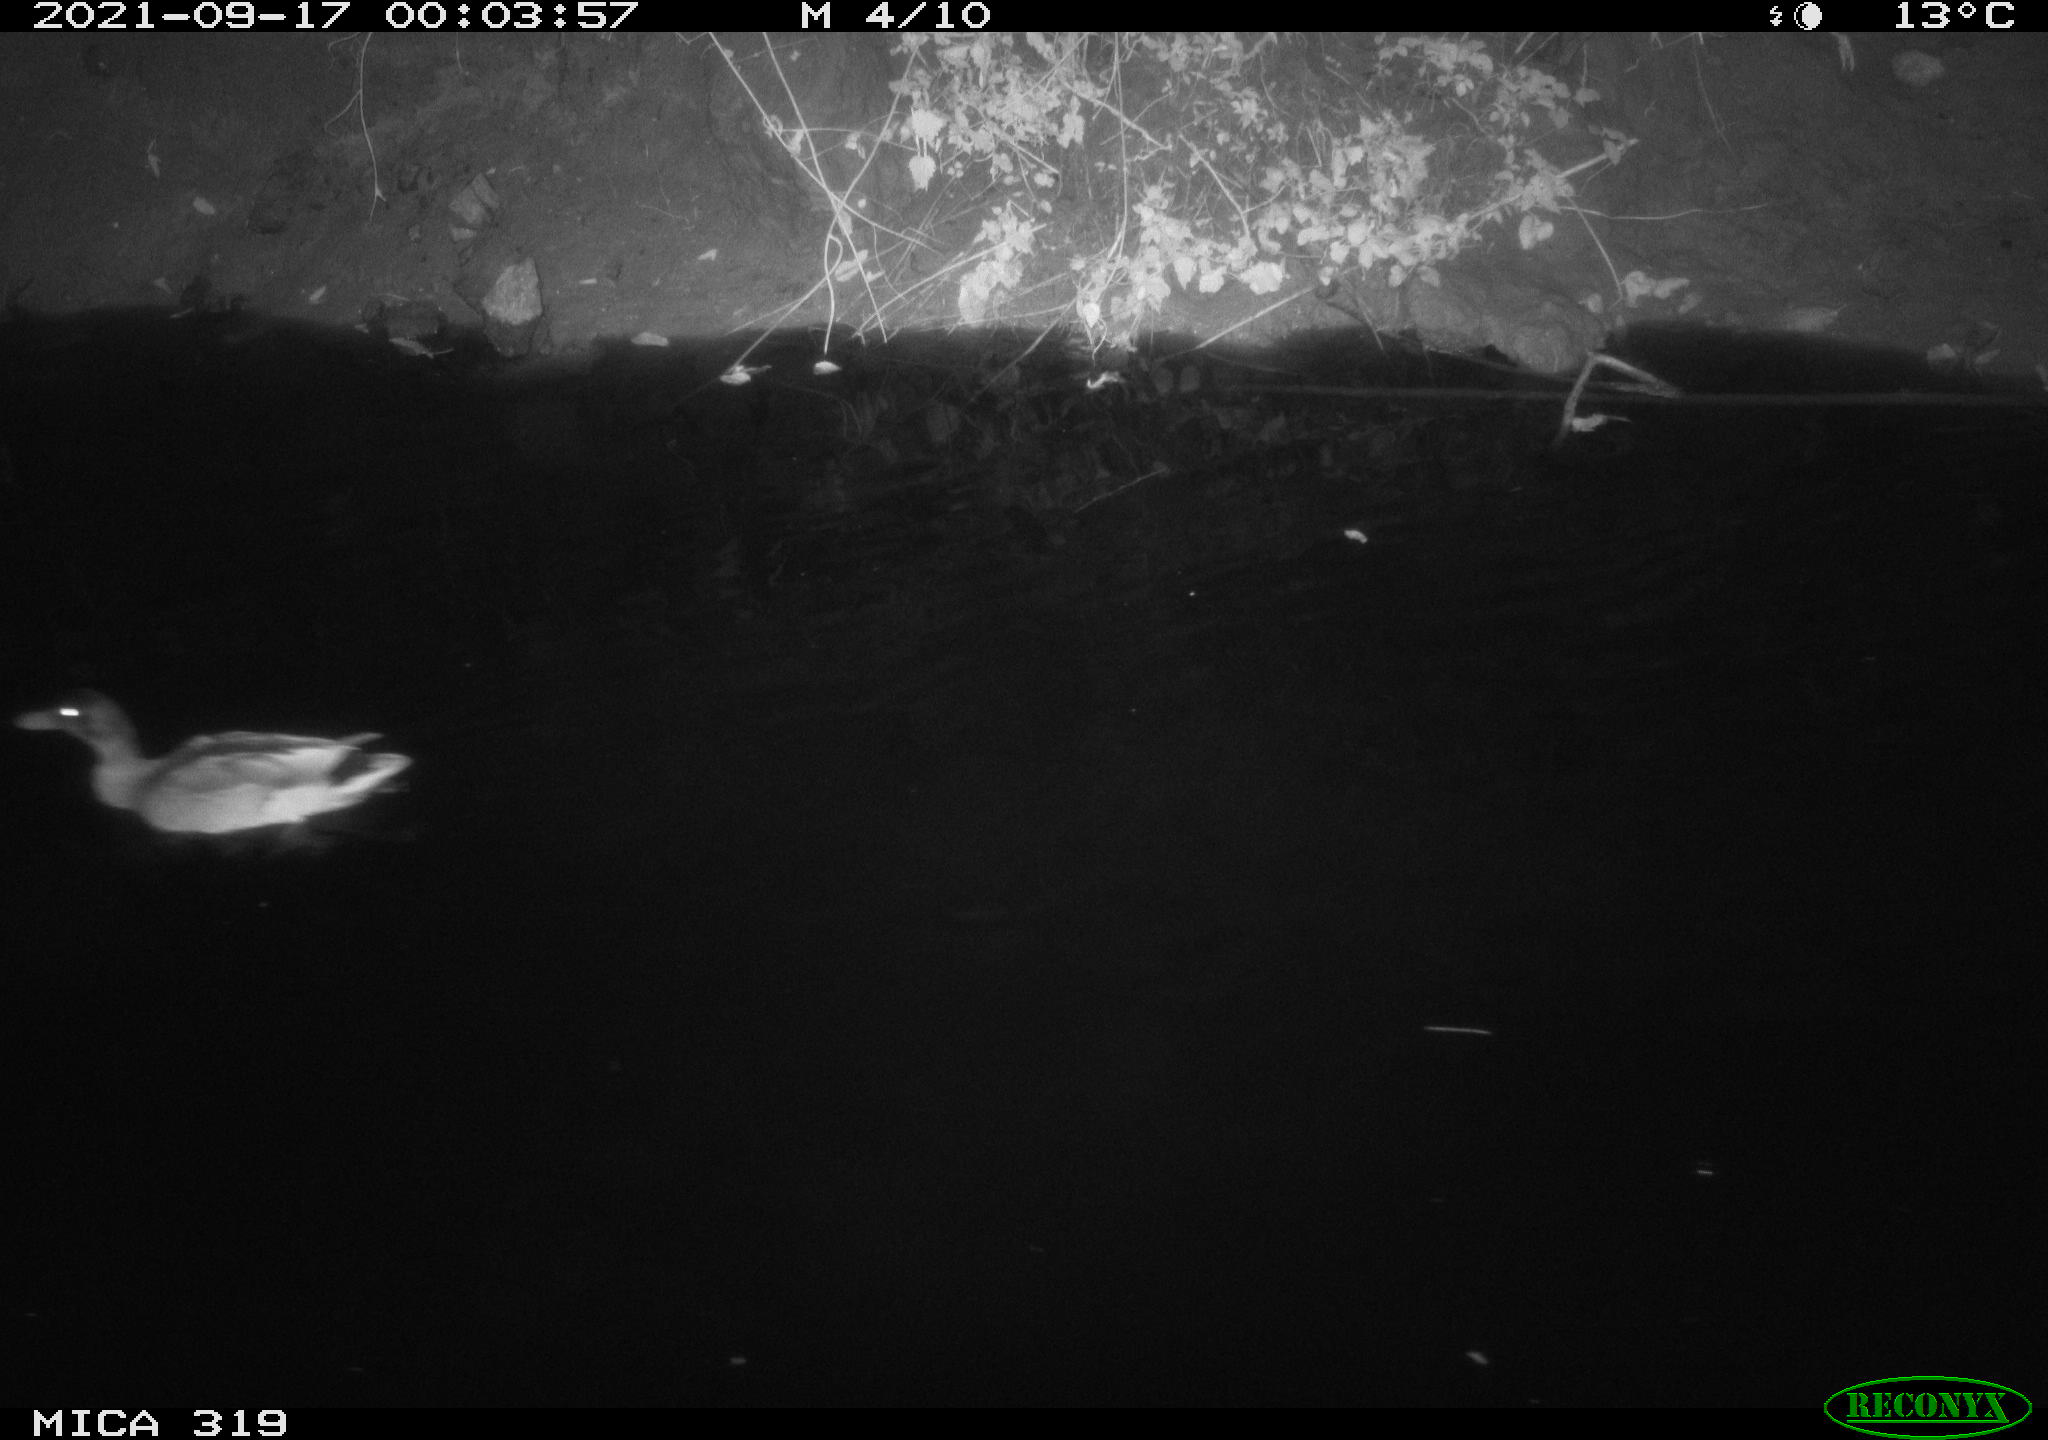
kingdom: Animalia
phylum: Chordata
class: Aves
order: Anseriformes
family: Anatidae
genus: Anas
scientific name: Anas platyrhynchos
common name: Mallard
